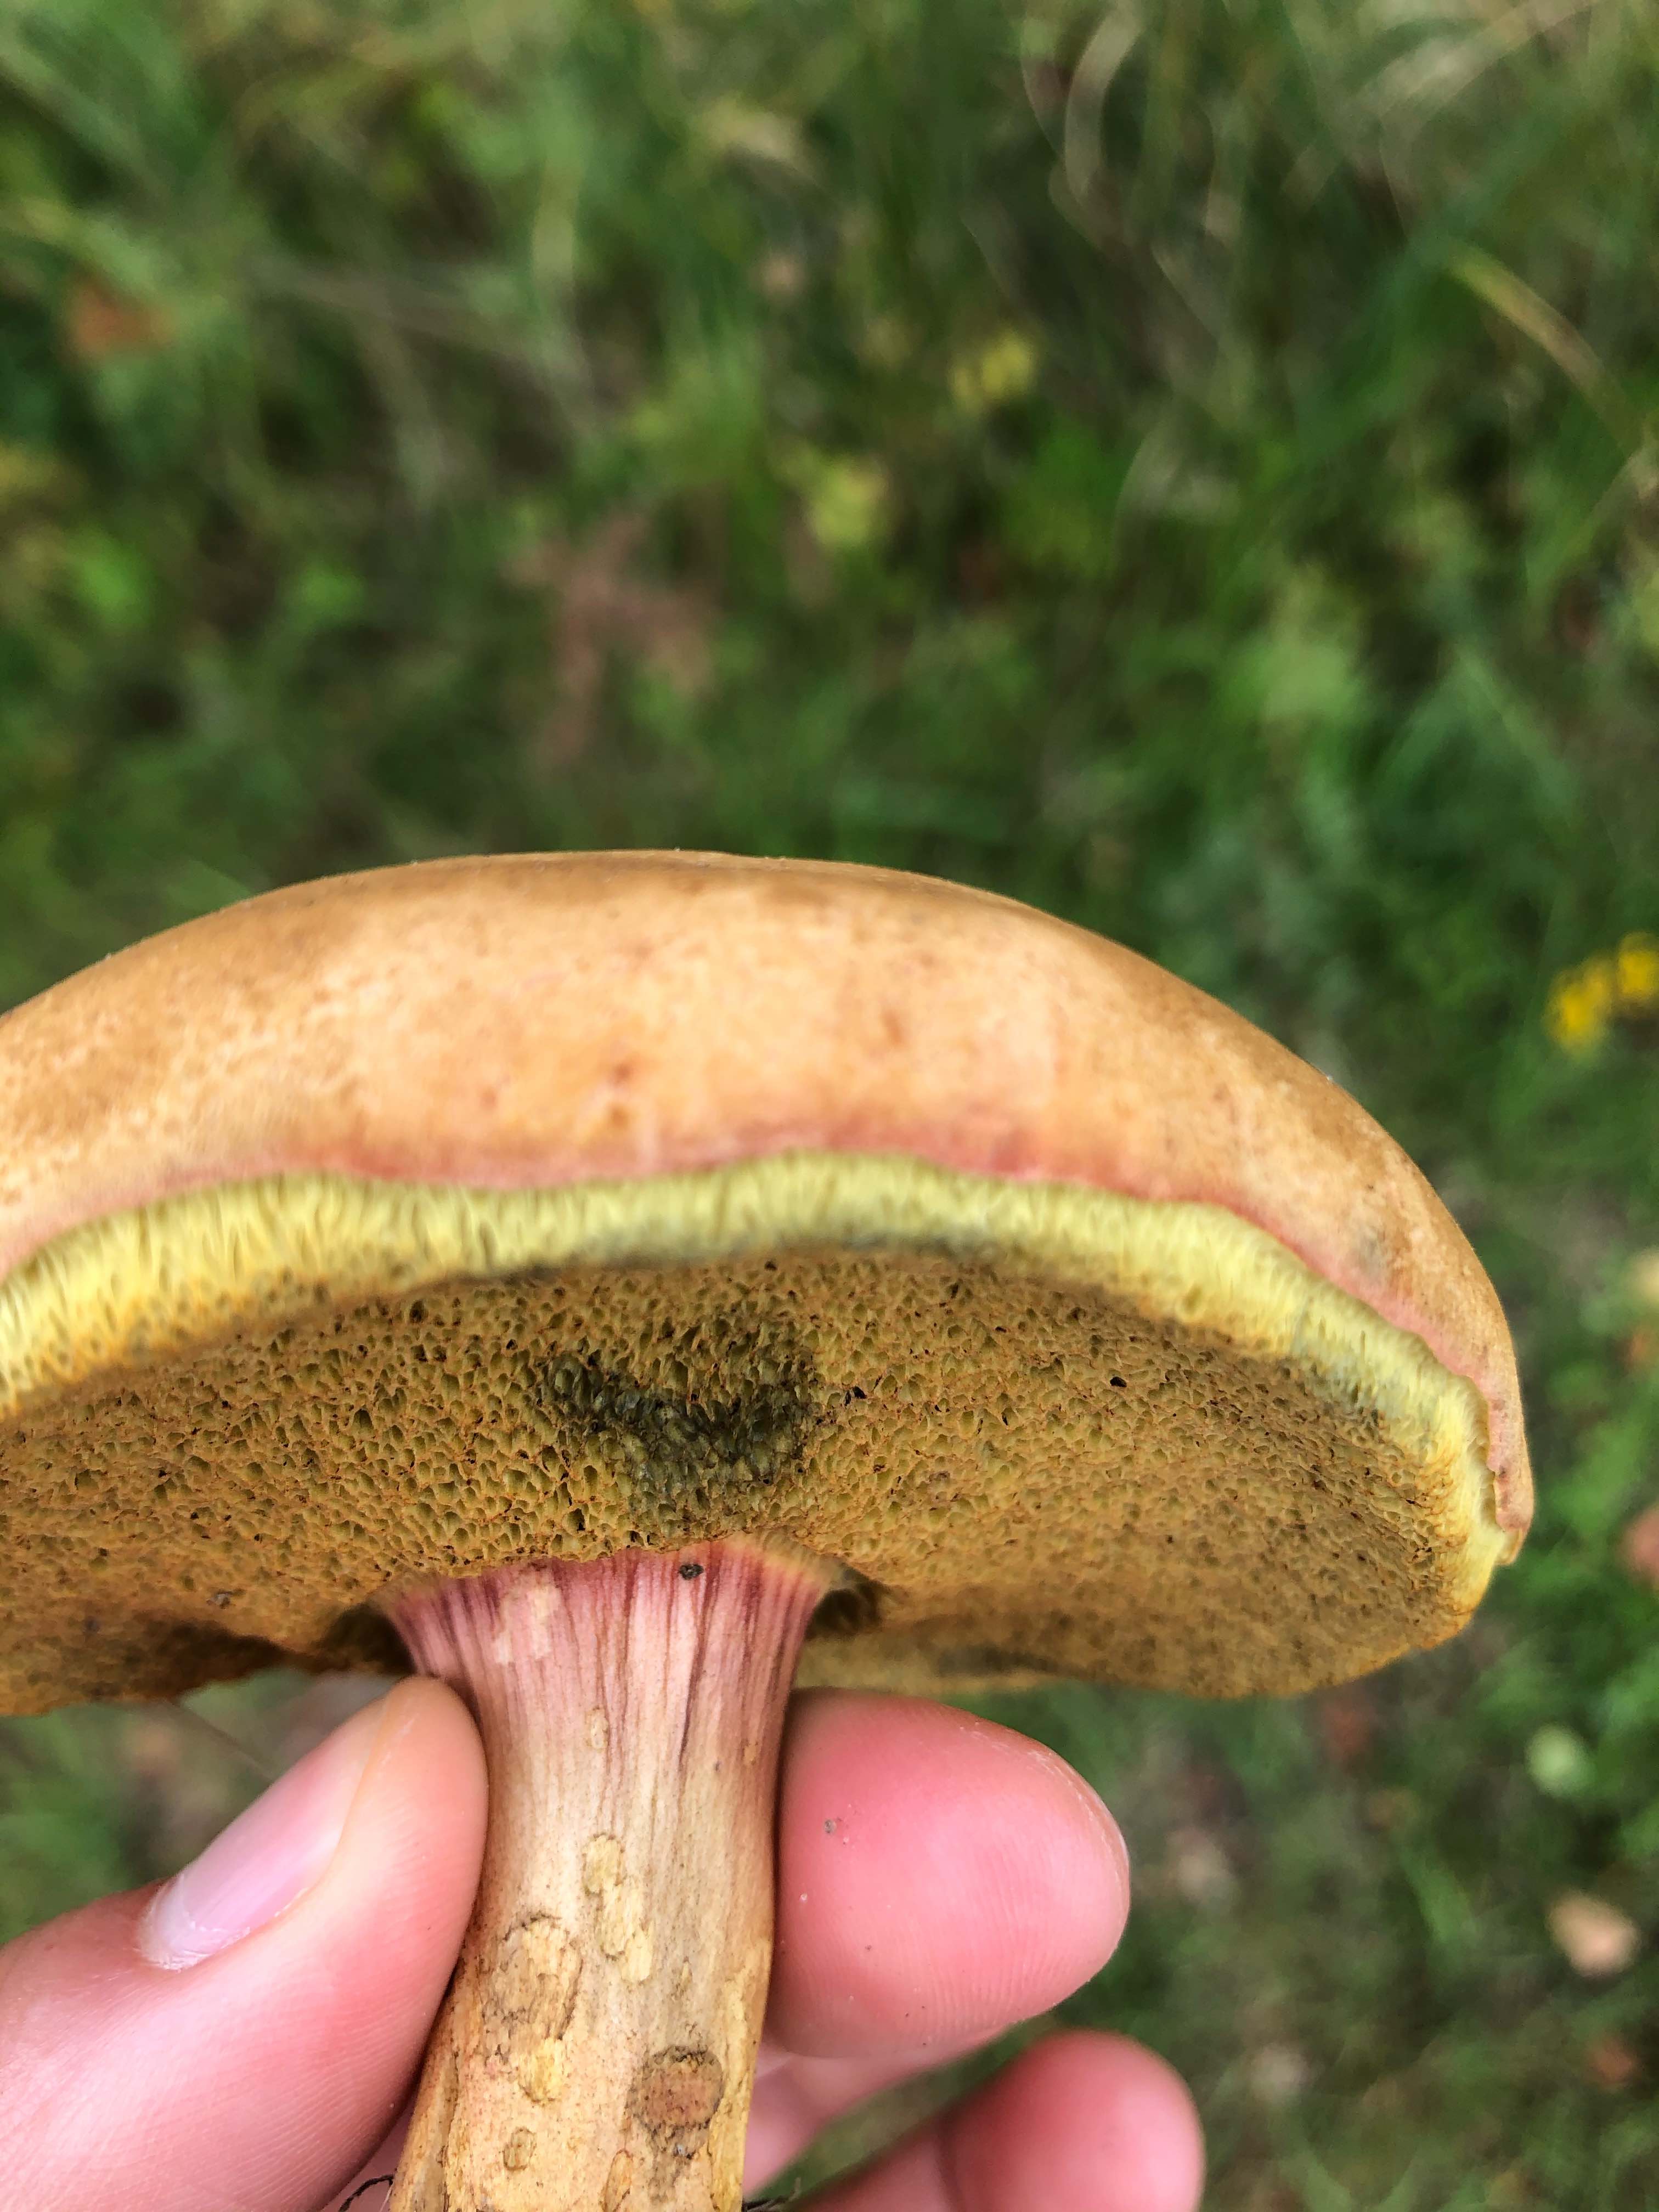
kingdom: Fungi
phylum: Basidiomycota
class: Agaricomycetes
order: Boletales
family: Boletaceae
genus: Hortiboletus
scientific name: Hortiboletus
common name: dværgrørhat
